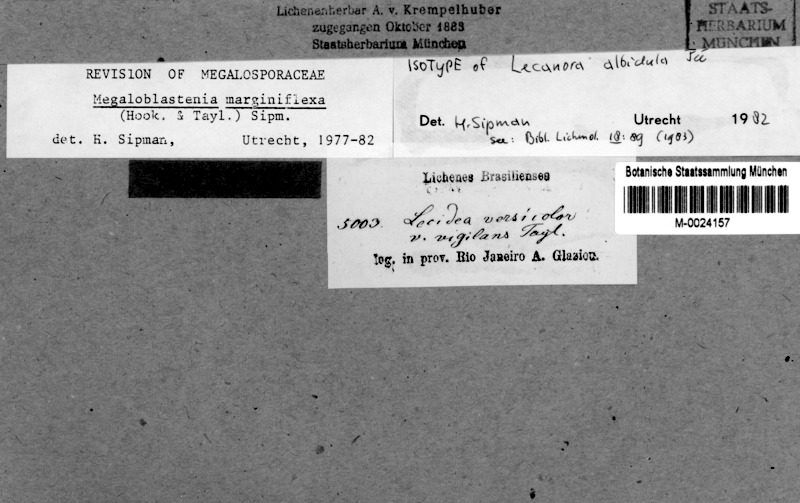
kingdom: Fungi
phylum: Ascomycota
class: Lecanoromycetes
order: Teloschistales
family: Megalosporaceae
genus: Megaloblastenia
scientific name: Megaloblastenia marginiflexa
